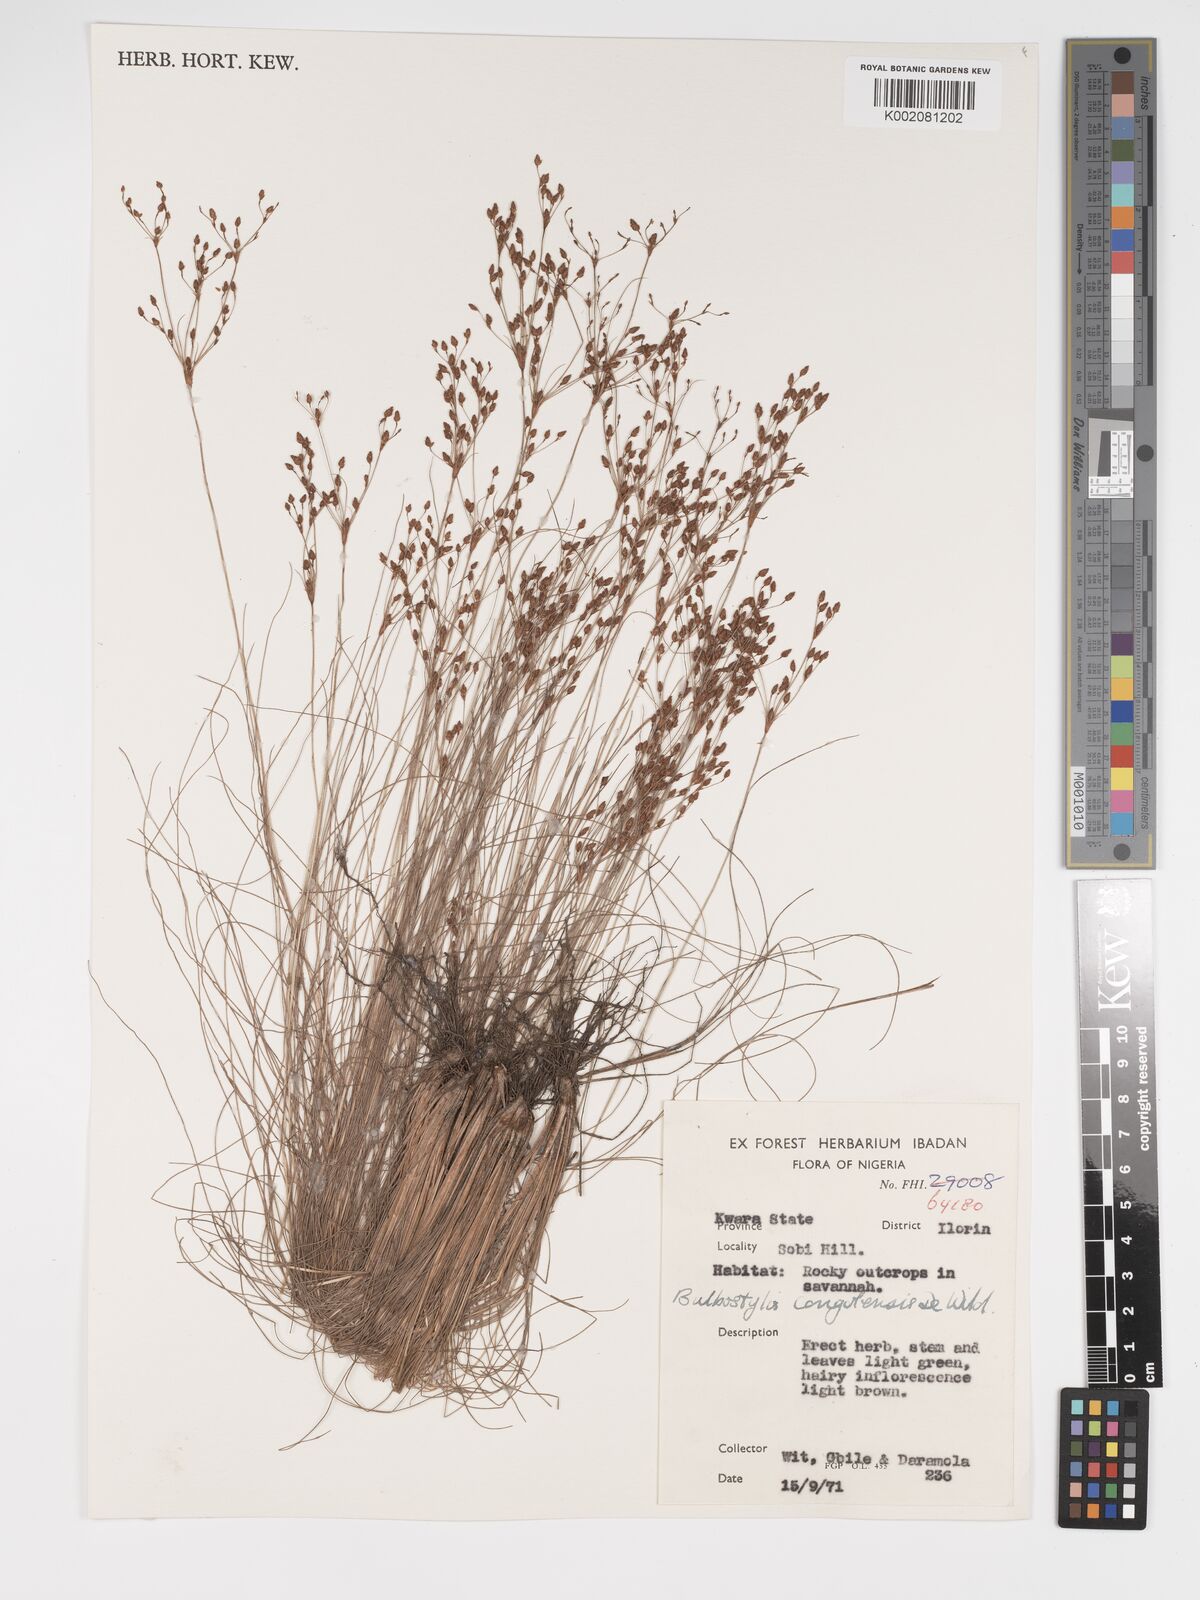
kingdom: Plantae
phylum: Tracheophyta
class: Liliopsida
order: Poales
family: Cyperaceae
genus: Bulbostylis
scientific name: Bulbostylis congolensis
